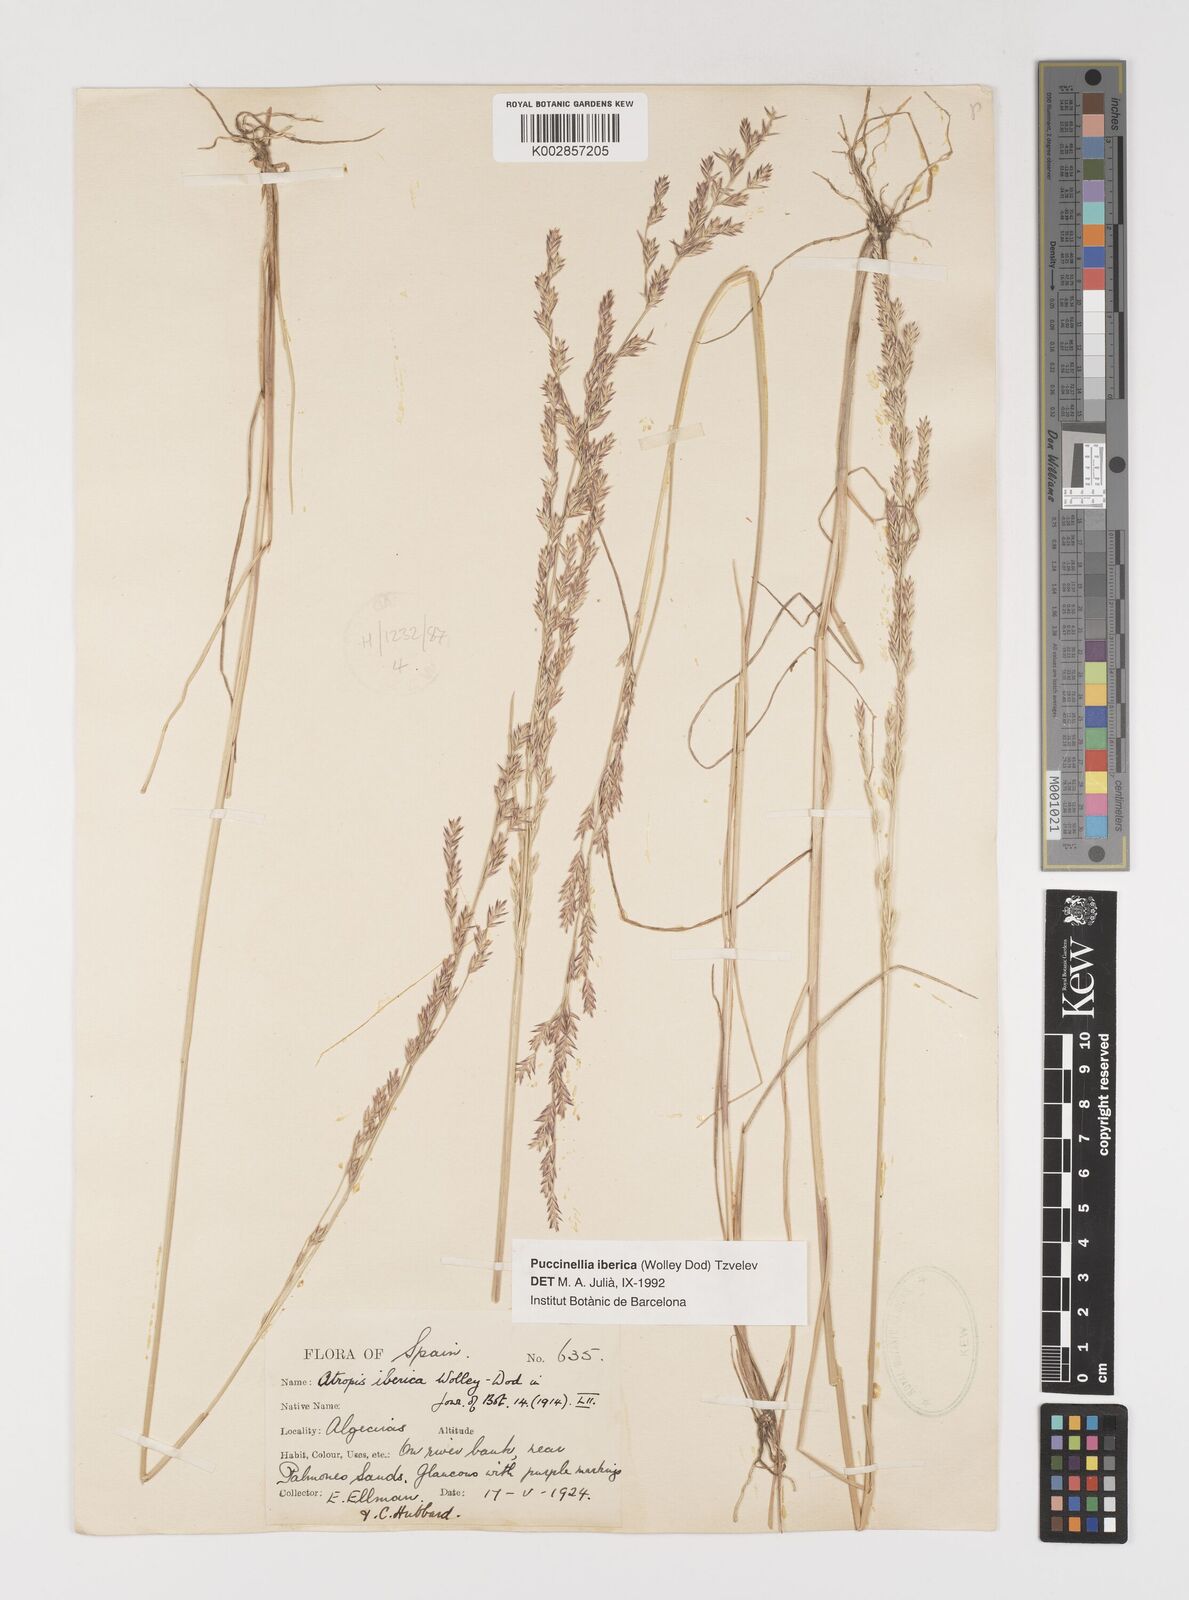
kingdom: Plantae
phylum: Tracheophyta
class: Liliopsida
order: Poales
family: Poaceae
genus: Puccinellia
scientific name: Puccinellia iberica
